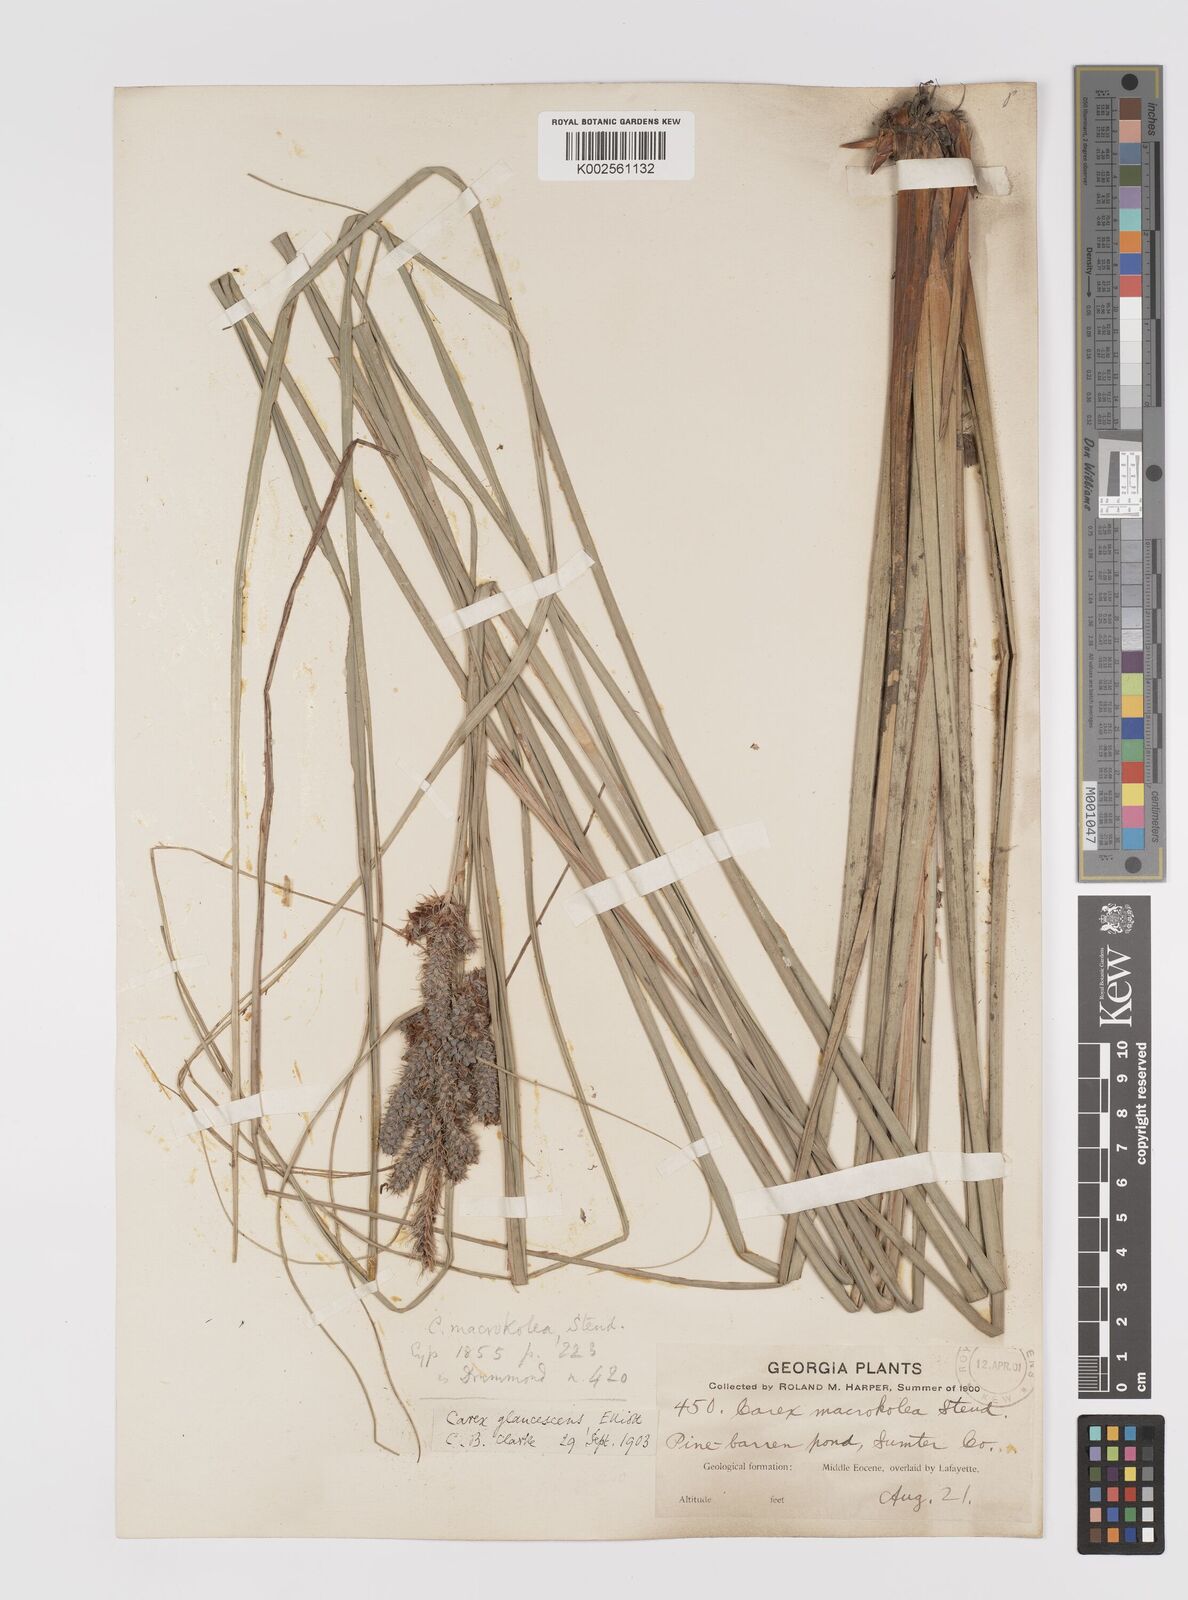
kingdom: Plantae
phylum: Tracheophyta
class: Liliopsida
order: Poales
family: Cyperaceae
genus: Carex
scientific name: Carex glaucescens
